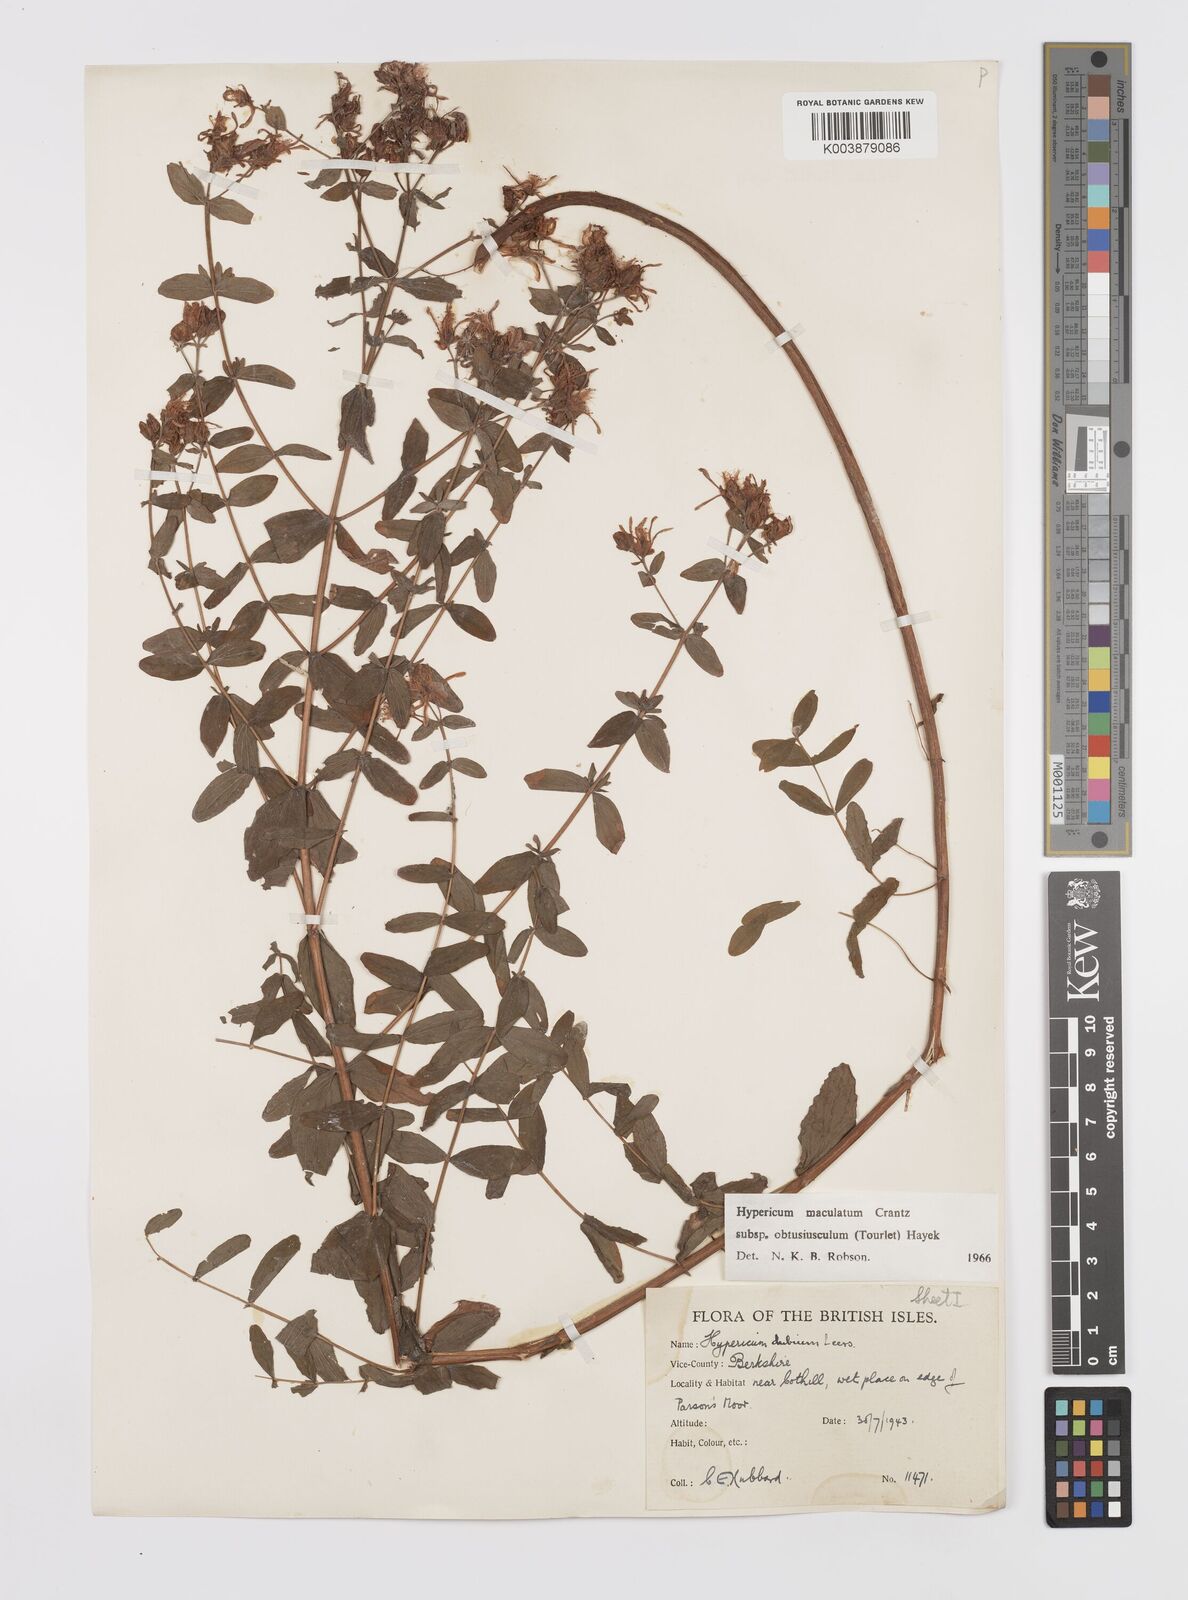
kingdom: Plantae
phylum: Tracheophyta
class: Magnoliopsida
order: Malpighiales
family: Hypericaceae
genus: Hypericum
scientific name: Hypericum dubium
